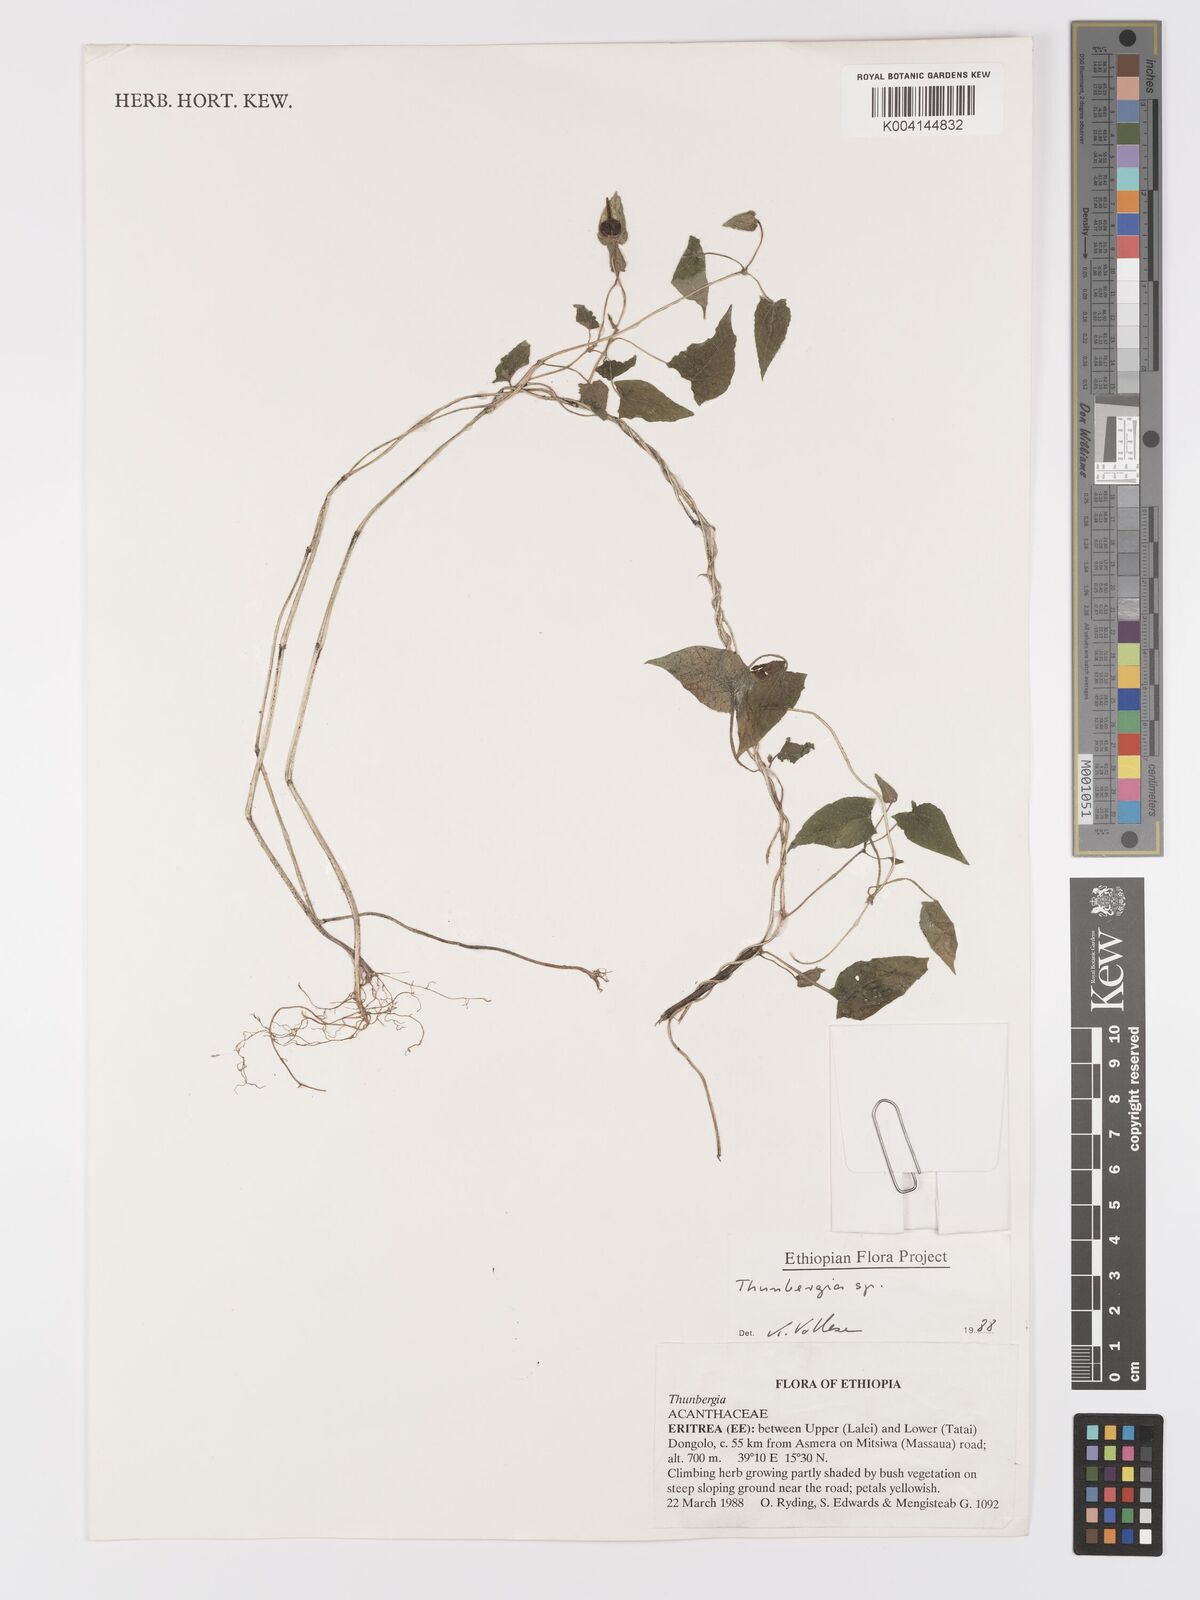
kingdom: Plantae
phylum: Tracheophyta
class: Magnoliopsida
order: Lamiales
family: Acanthaceae
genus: Thunbergia
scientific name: Thunbergia reticulata
